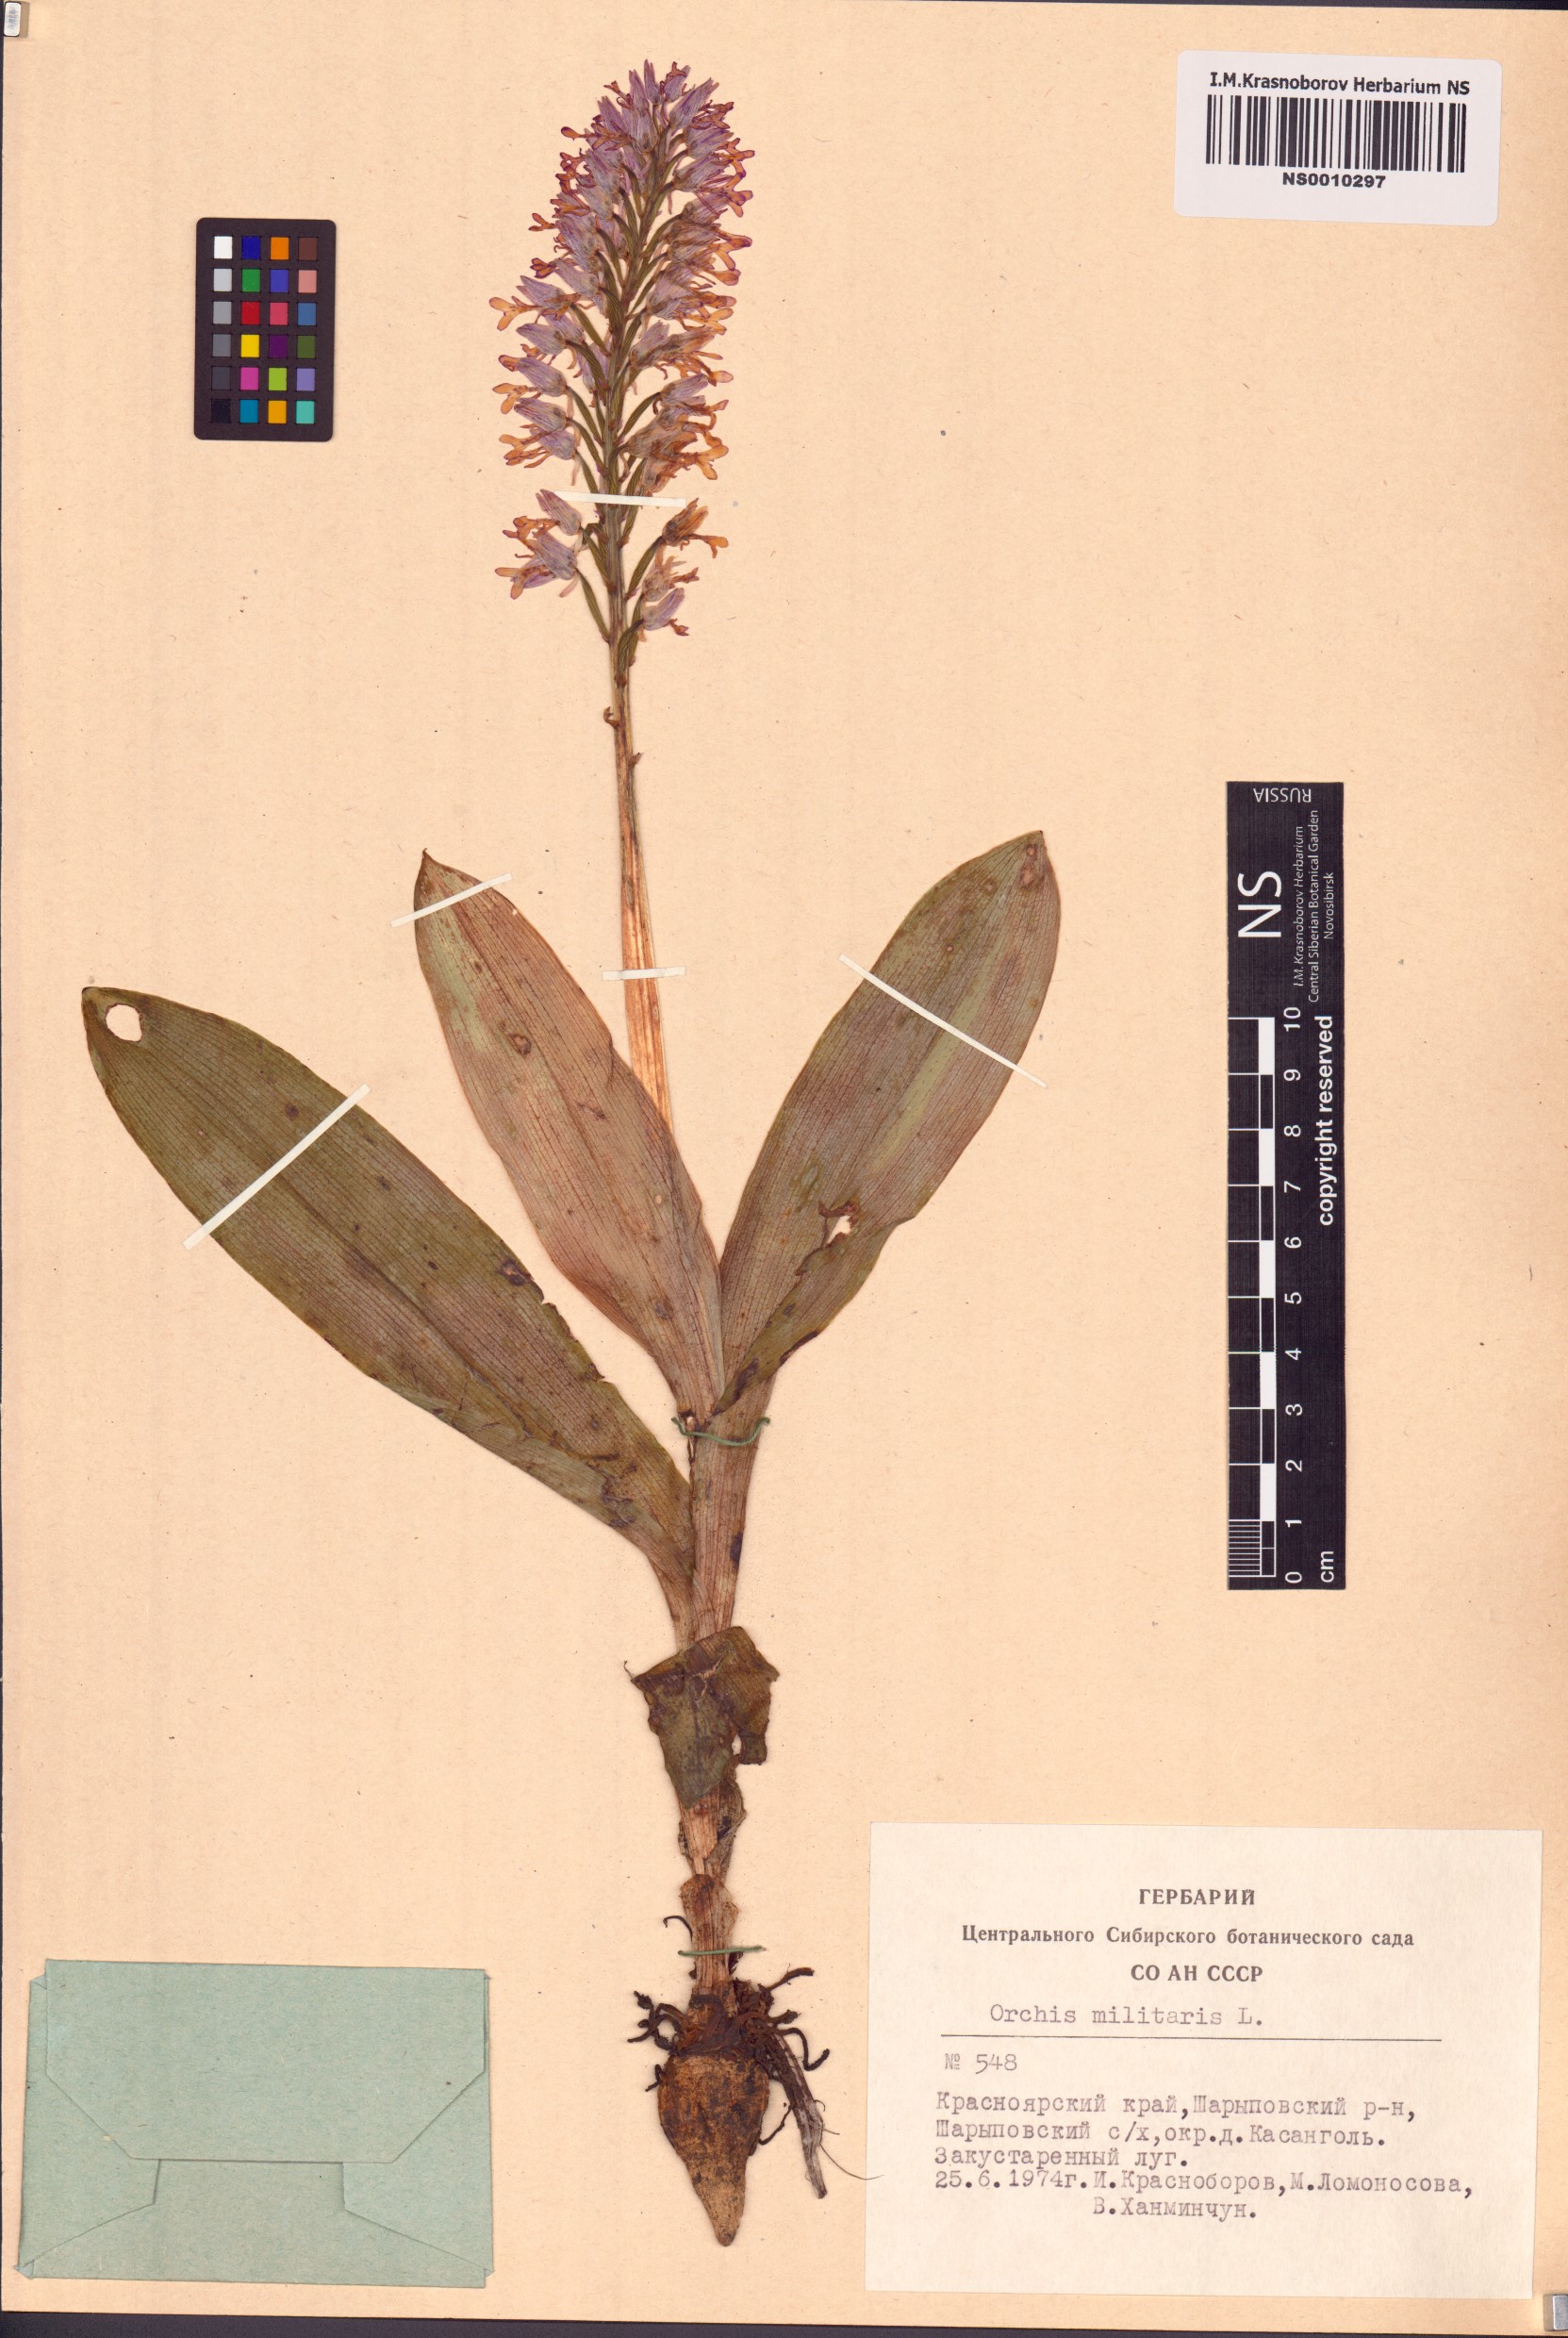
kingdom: Plantae
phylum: Tracheophyta
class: Liliopsida
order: Asparagales
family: Orchidaceae
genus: Orchis
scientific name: Orchis militaris
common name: Military orchid
